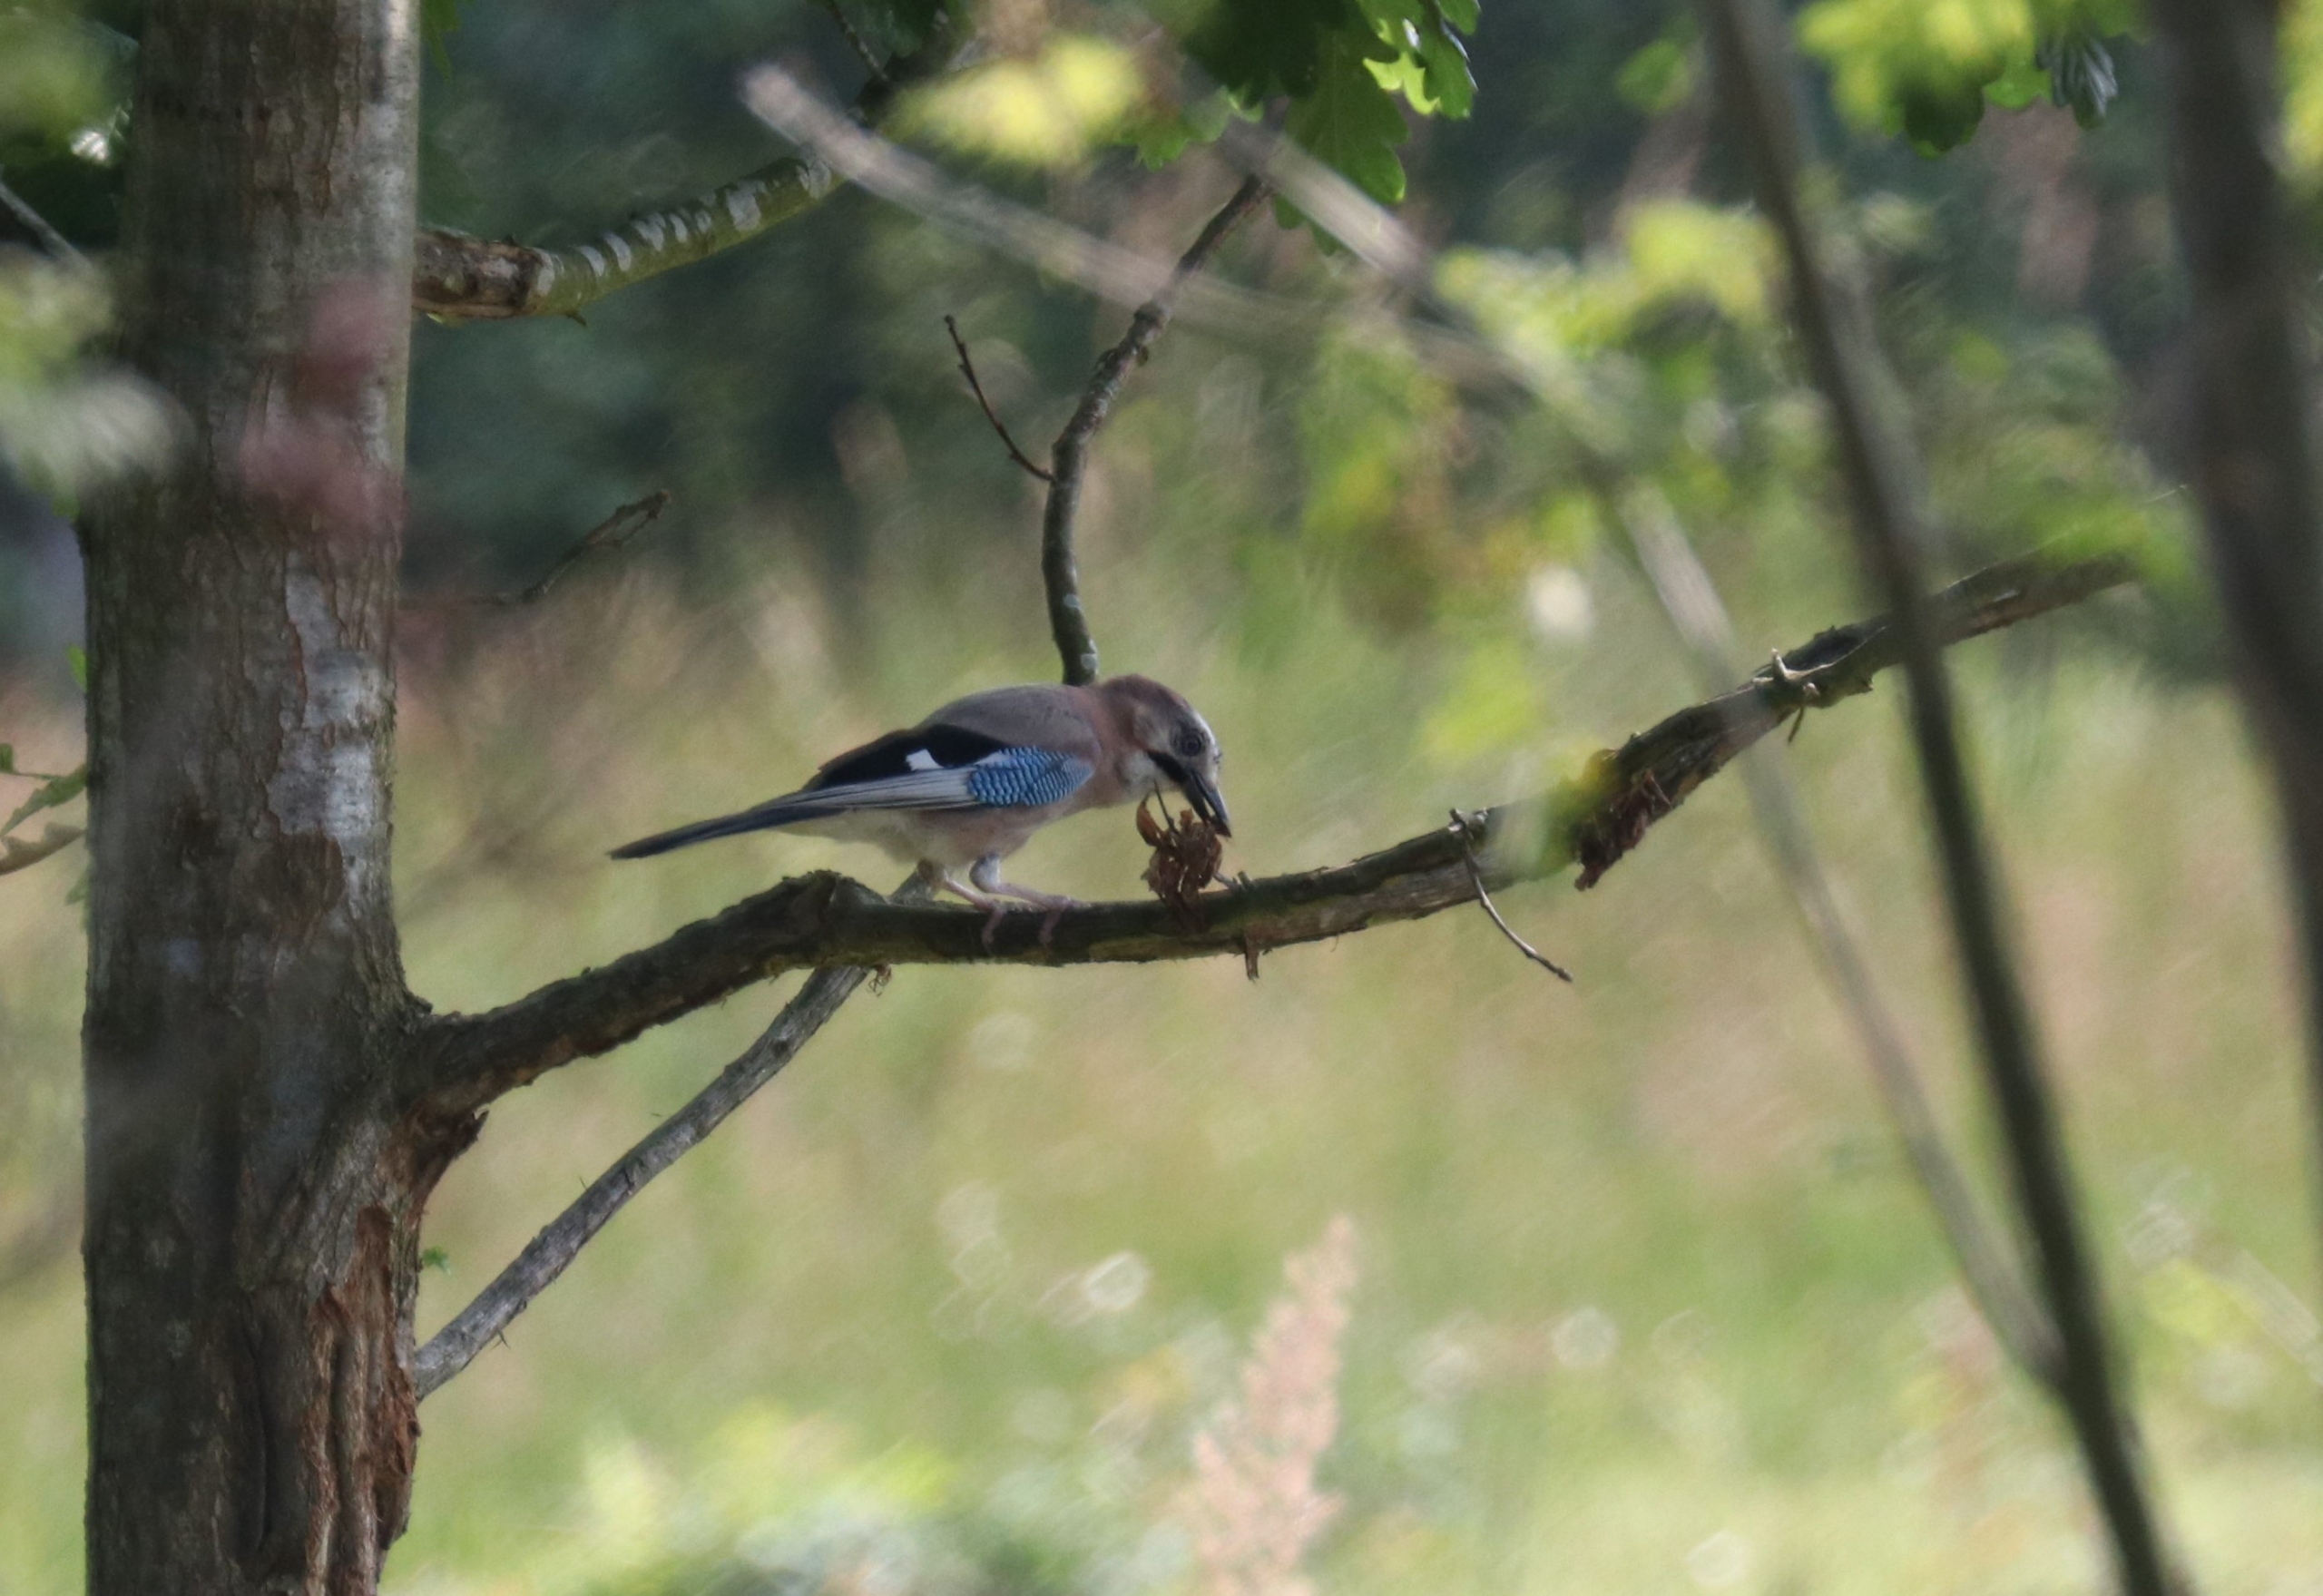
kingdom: Animalia
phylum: Chordata
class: Aves
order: Passeriformes
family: Corvidae
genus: Garrulus
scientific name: Garrulus glandarius
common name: Skovskade
